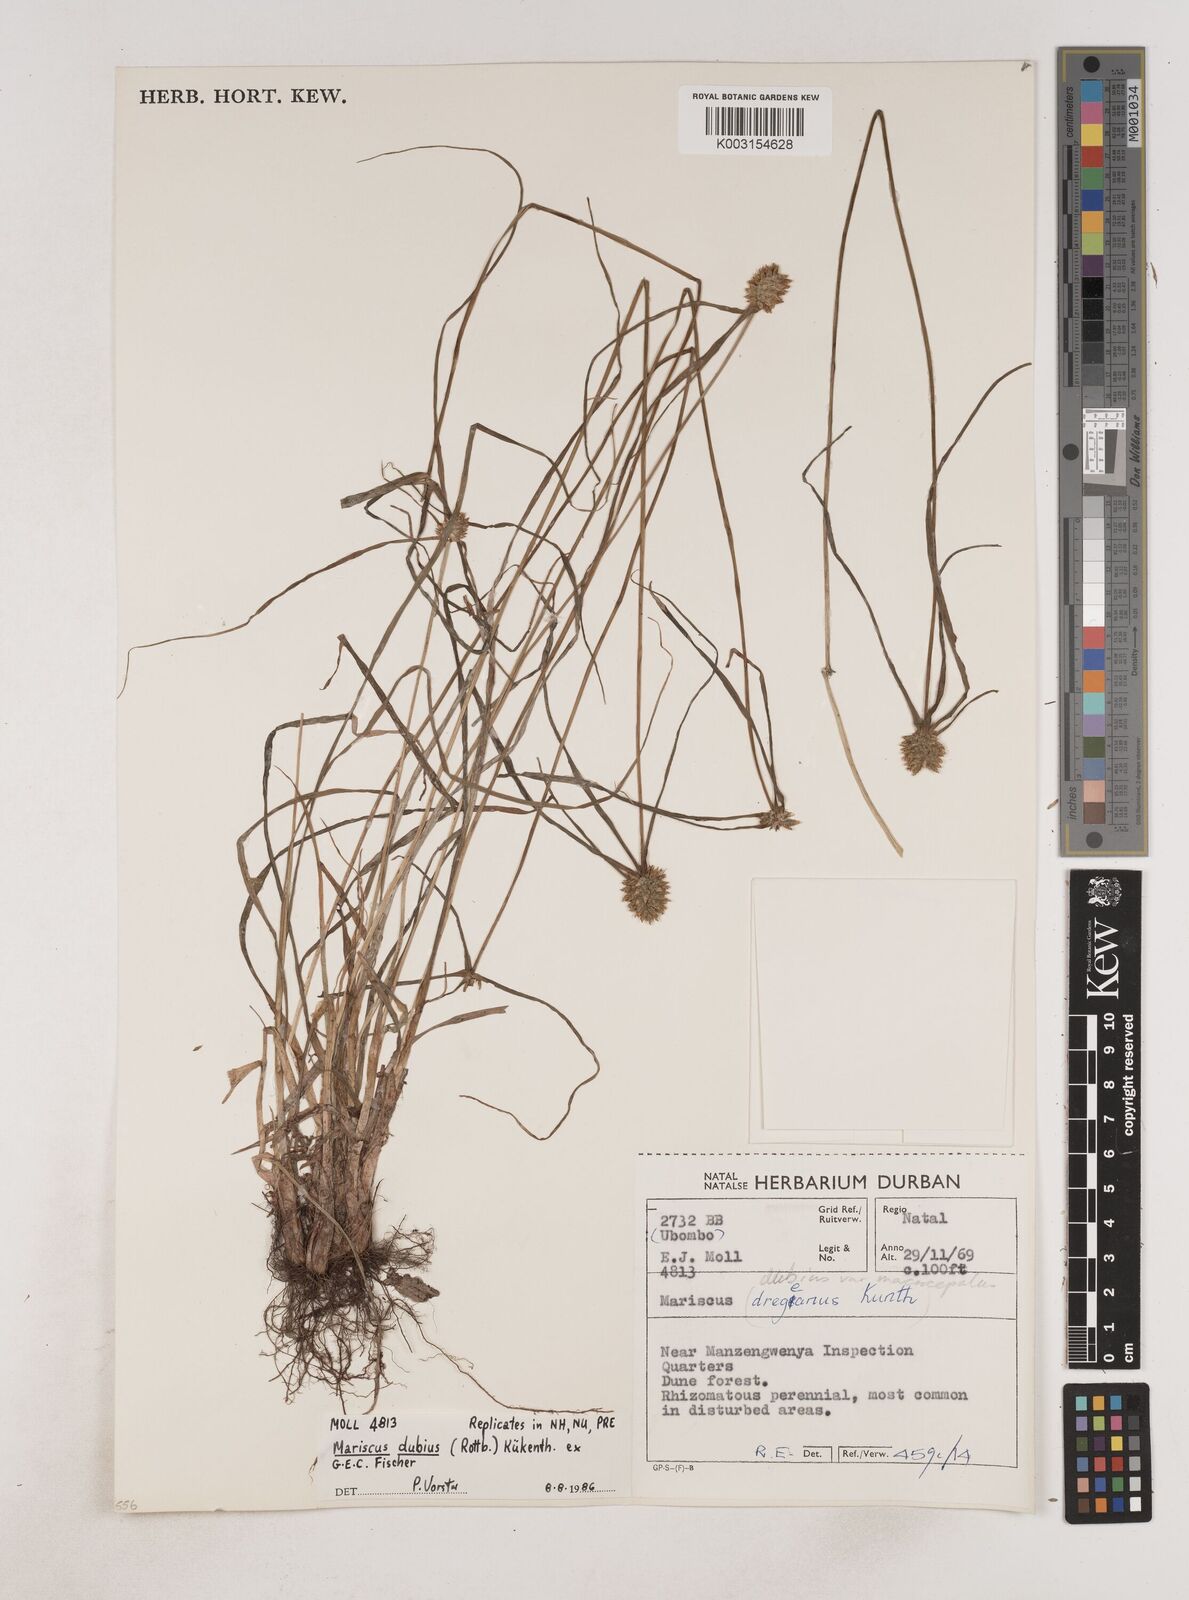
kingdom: Plantae
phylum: Tracheophyta
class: Liliopsida
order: Poales
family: Cyperaceae
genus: Cyperus
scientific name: Cyperus dubius
